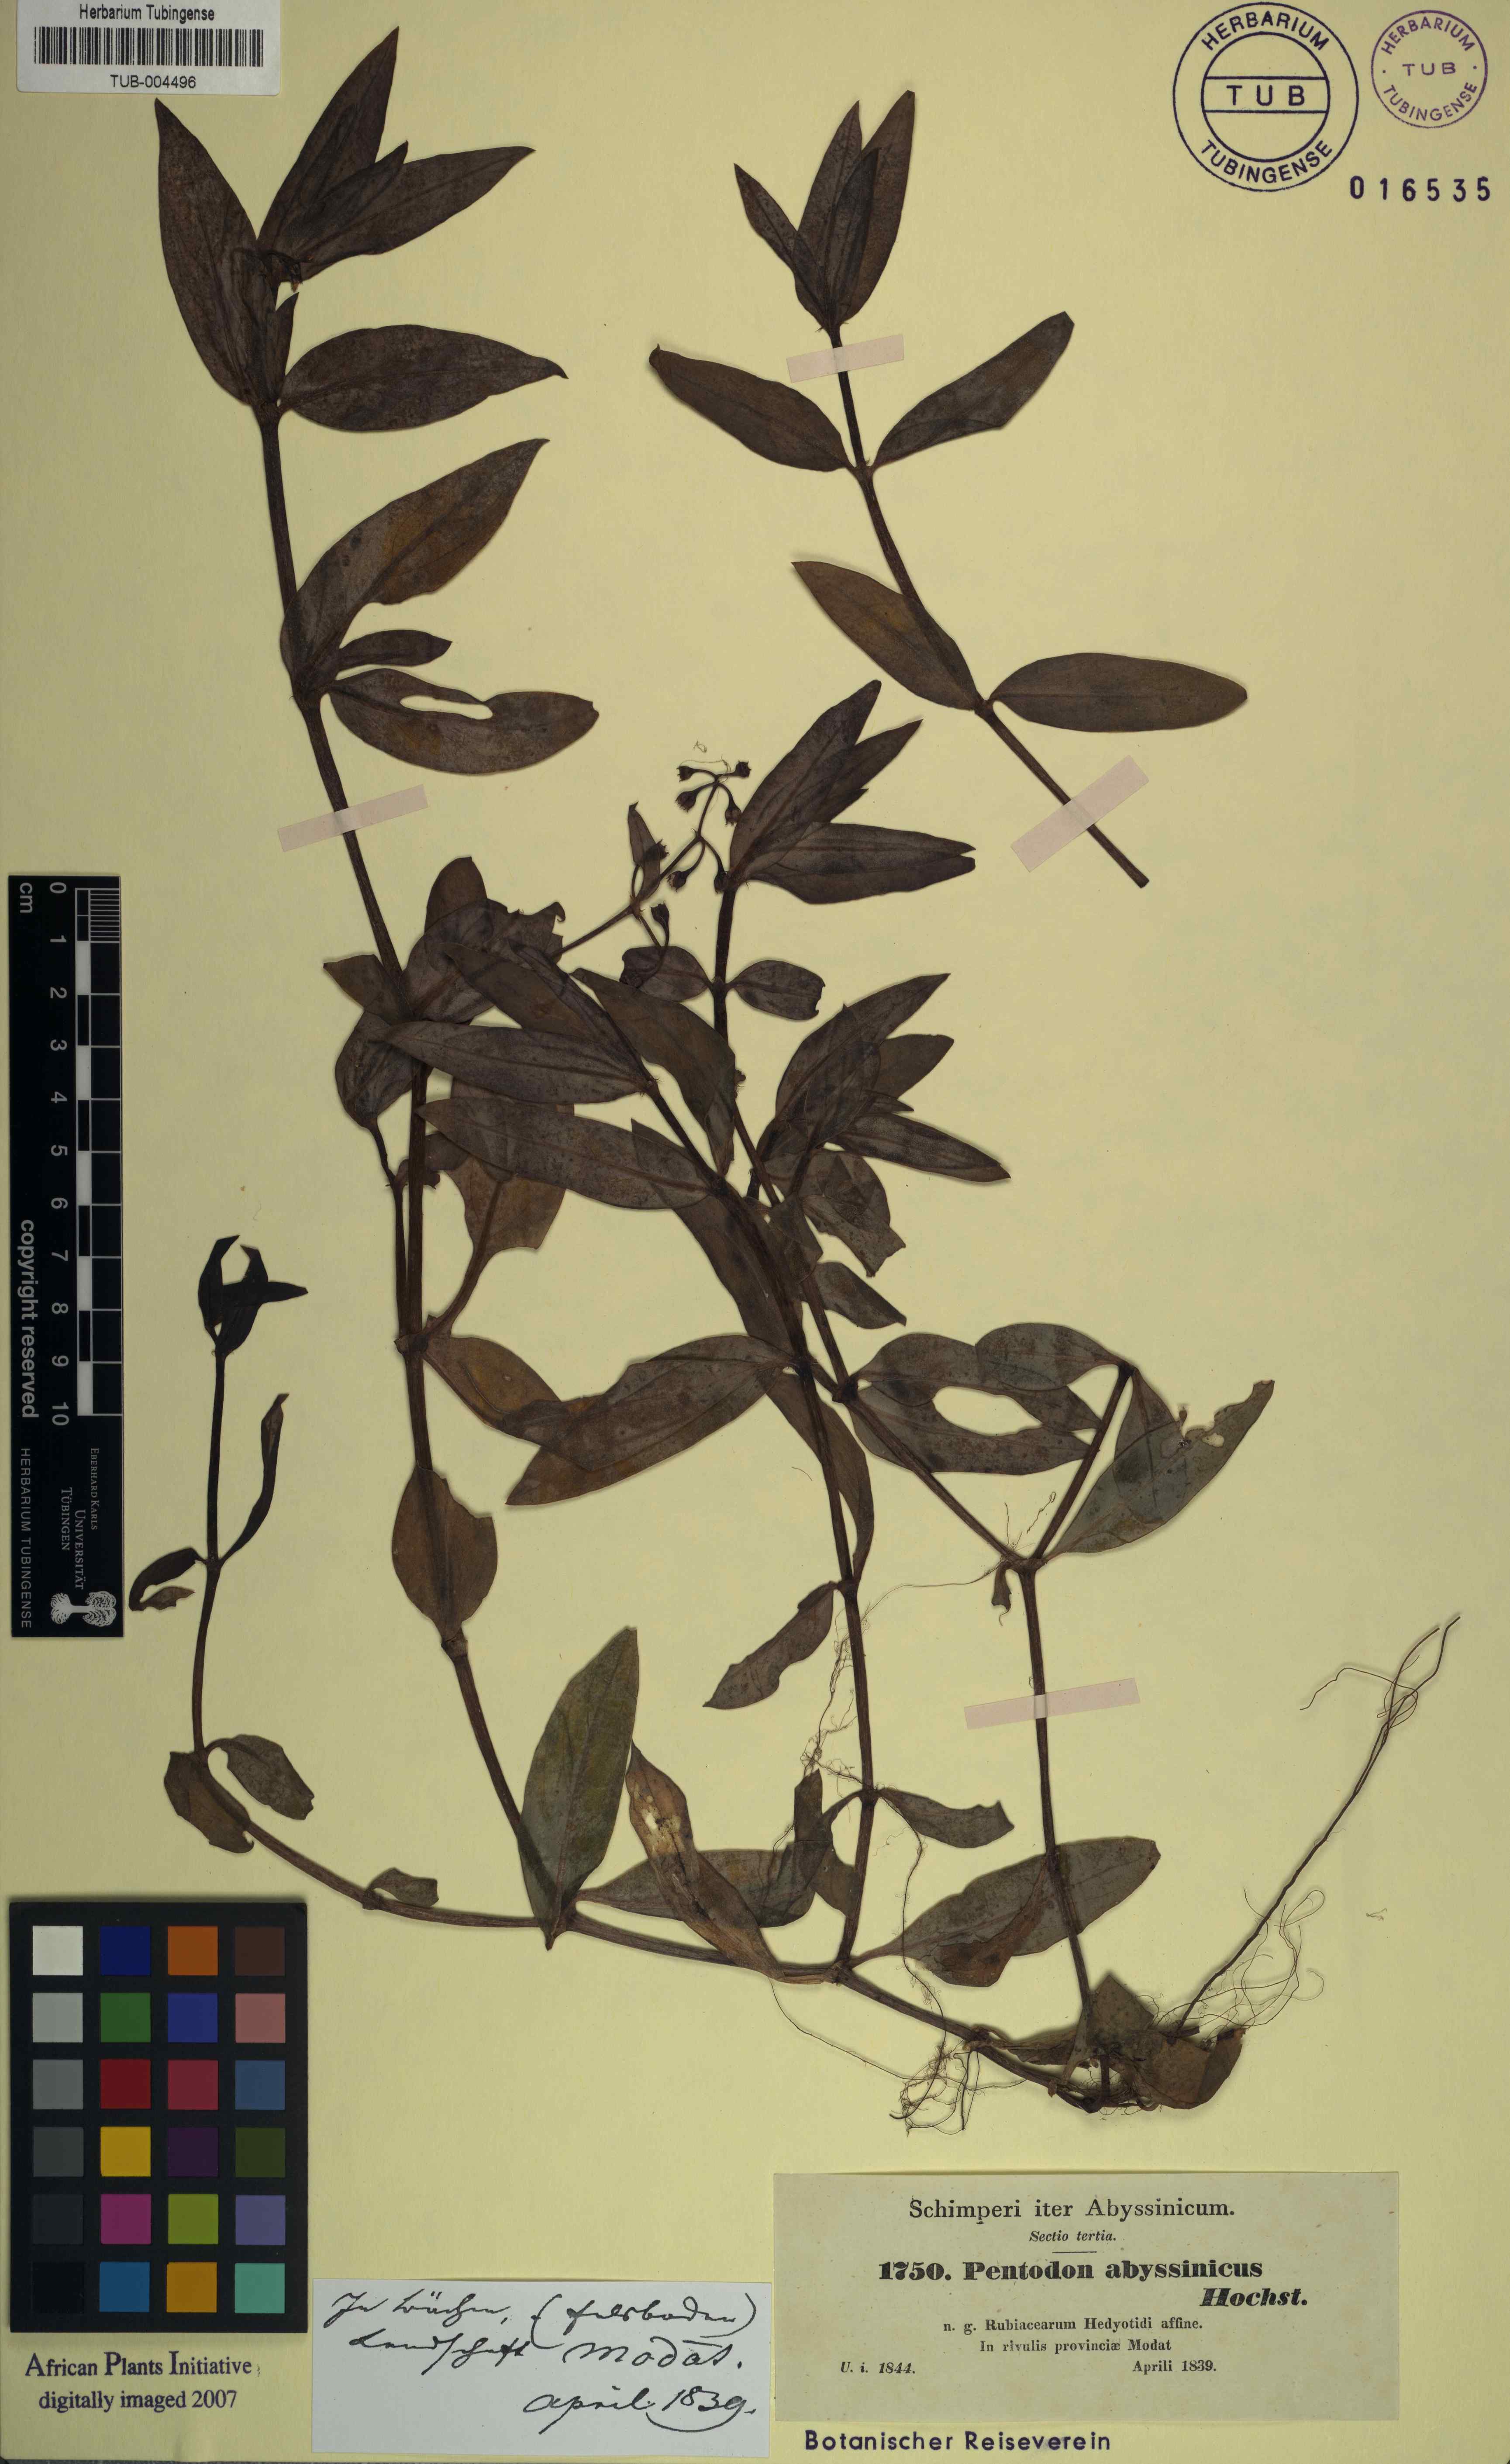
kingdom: Plantae
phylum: Tracheophyta
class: Magnoliopsida
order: Gentianales
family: Rubiaceae
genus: Pentodon
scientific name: Pentodon pentandrus
